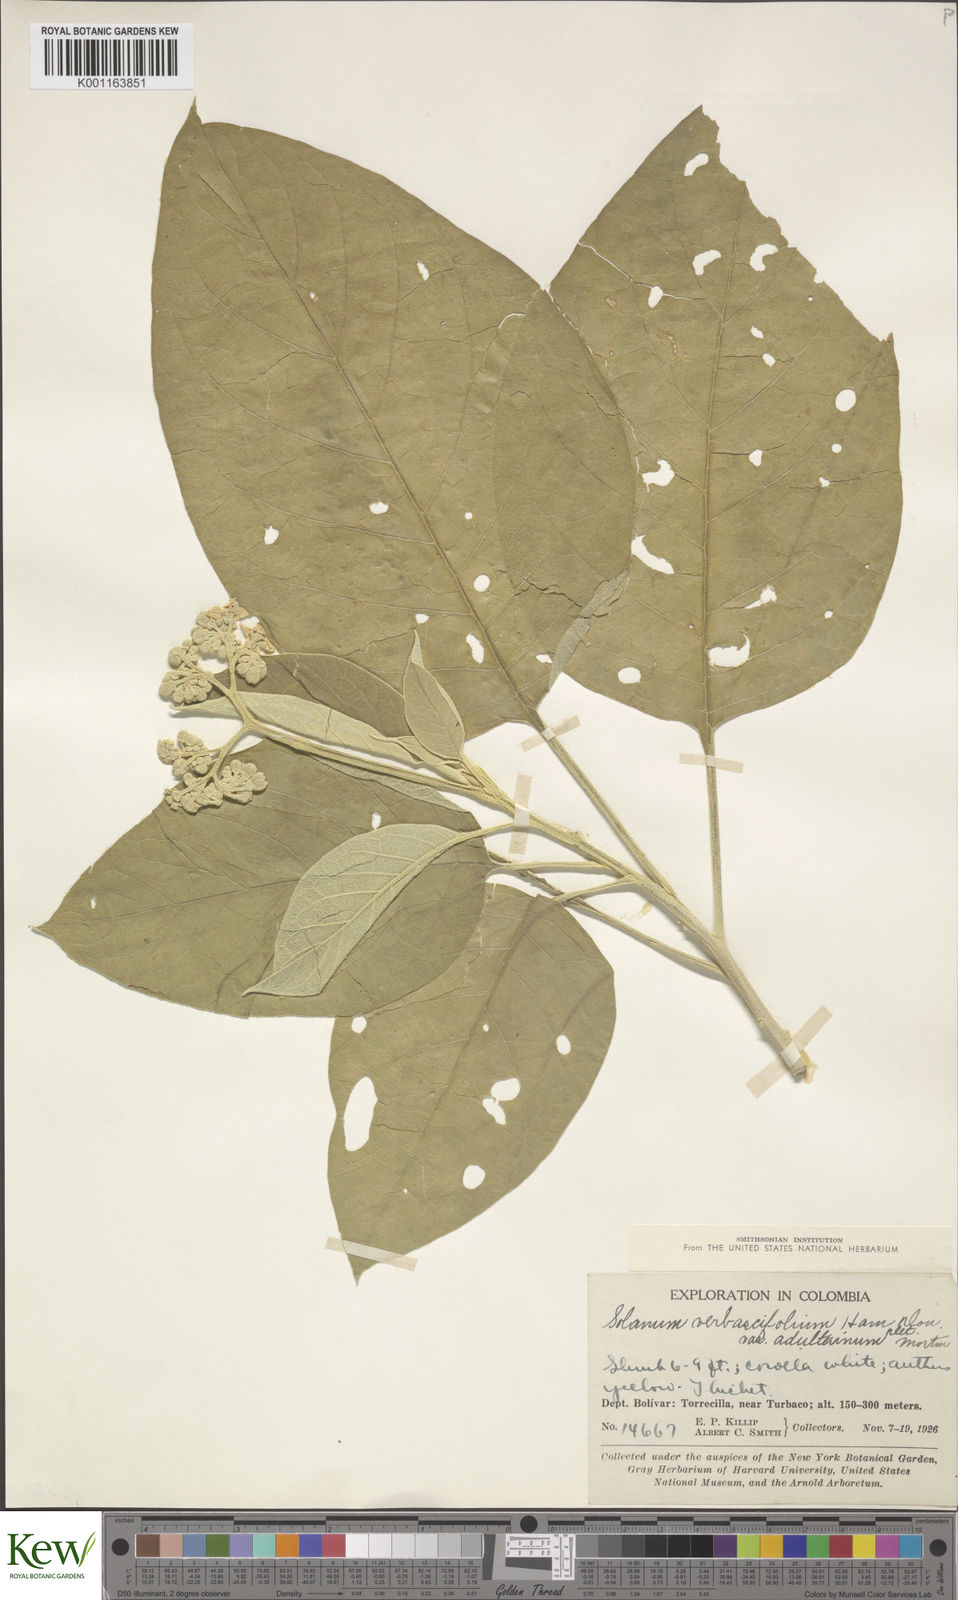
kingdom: Plantae
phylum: Tracheophyta
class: Magnoliopsida
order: Solanales
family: Solanaceae
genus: Solanum
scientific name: Solanum erianthum
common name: Tobacco-tree
